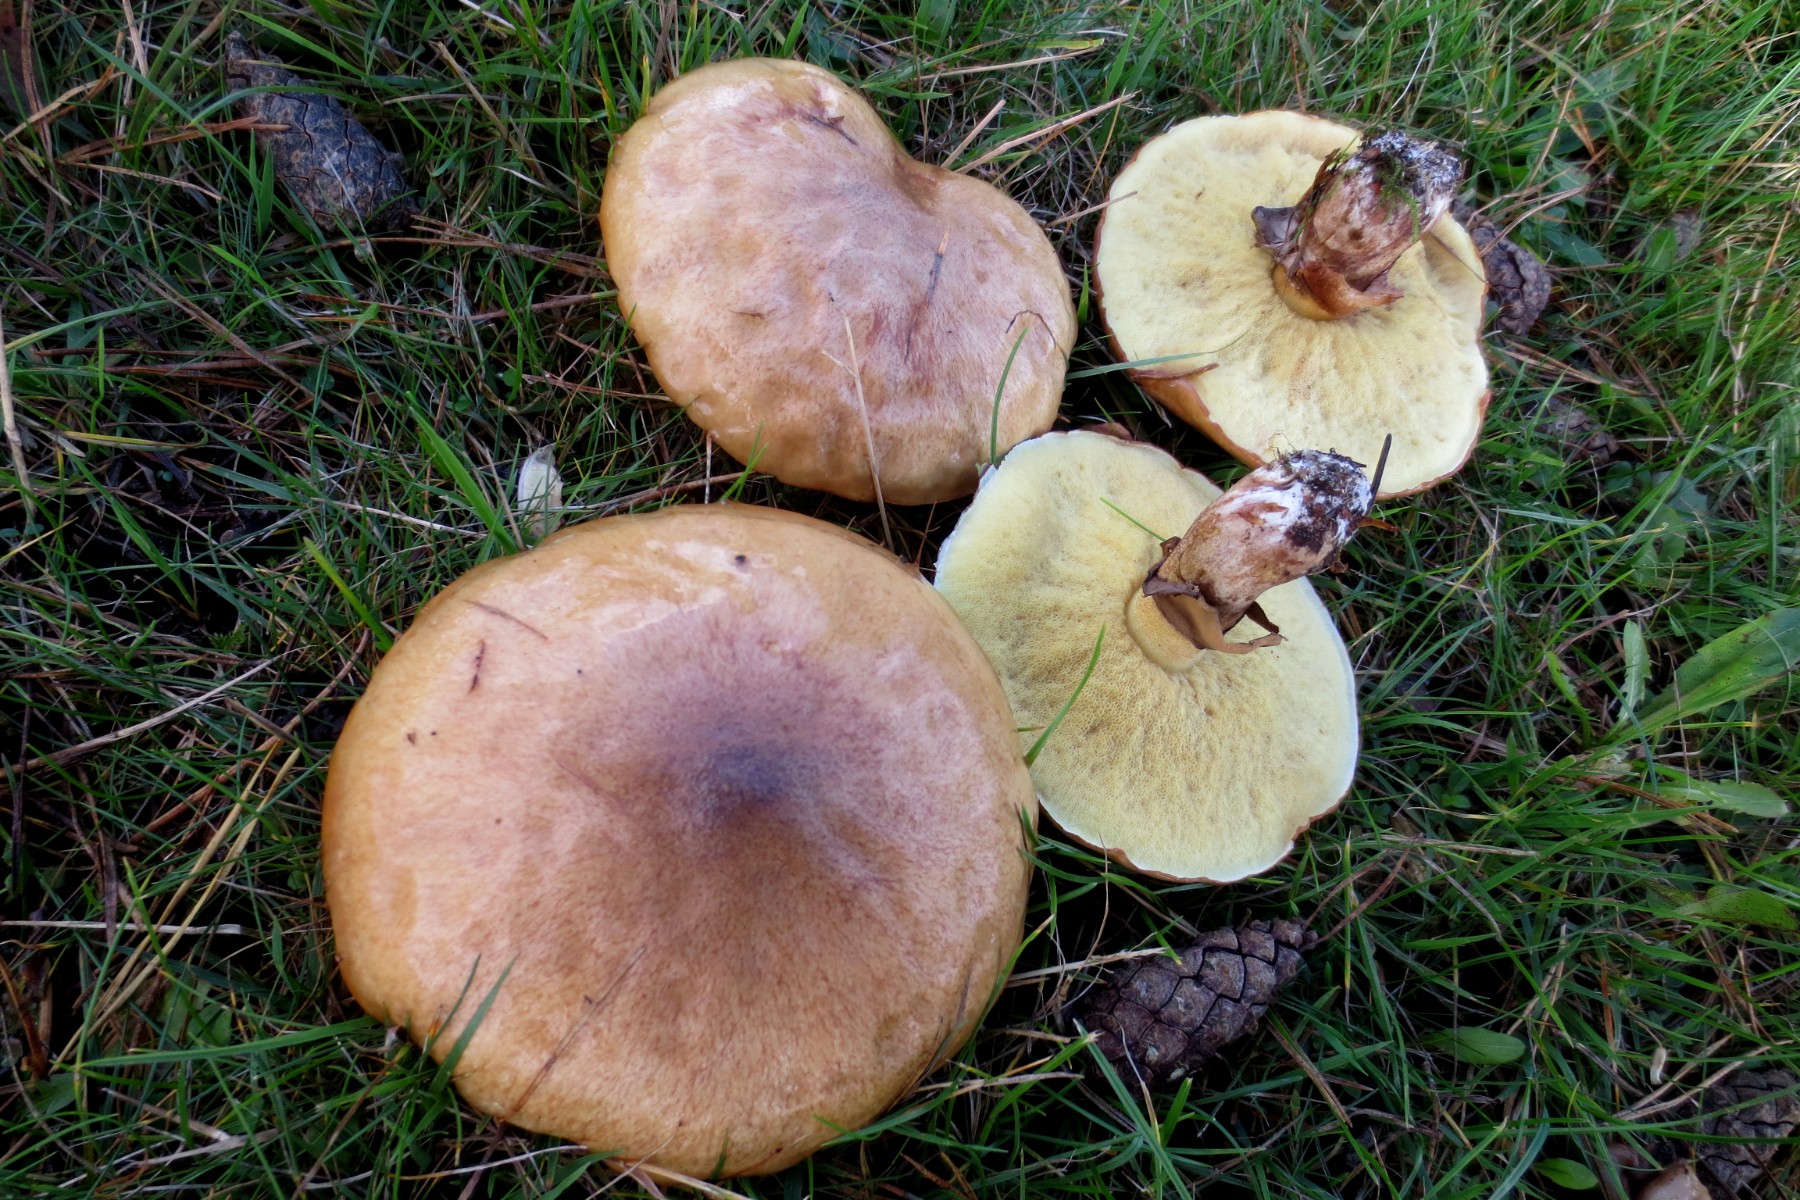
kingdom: Fungi
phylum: Basidiomycota
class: Agaricomycetes
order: Boletales
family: Suillaceae
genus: Suillus
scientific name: Suillus luteus
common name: brungul slimrørhat
